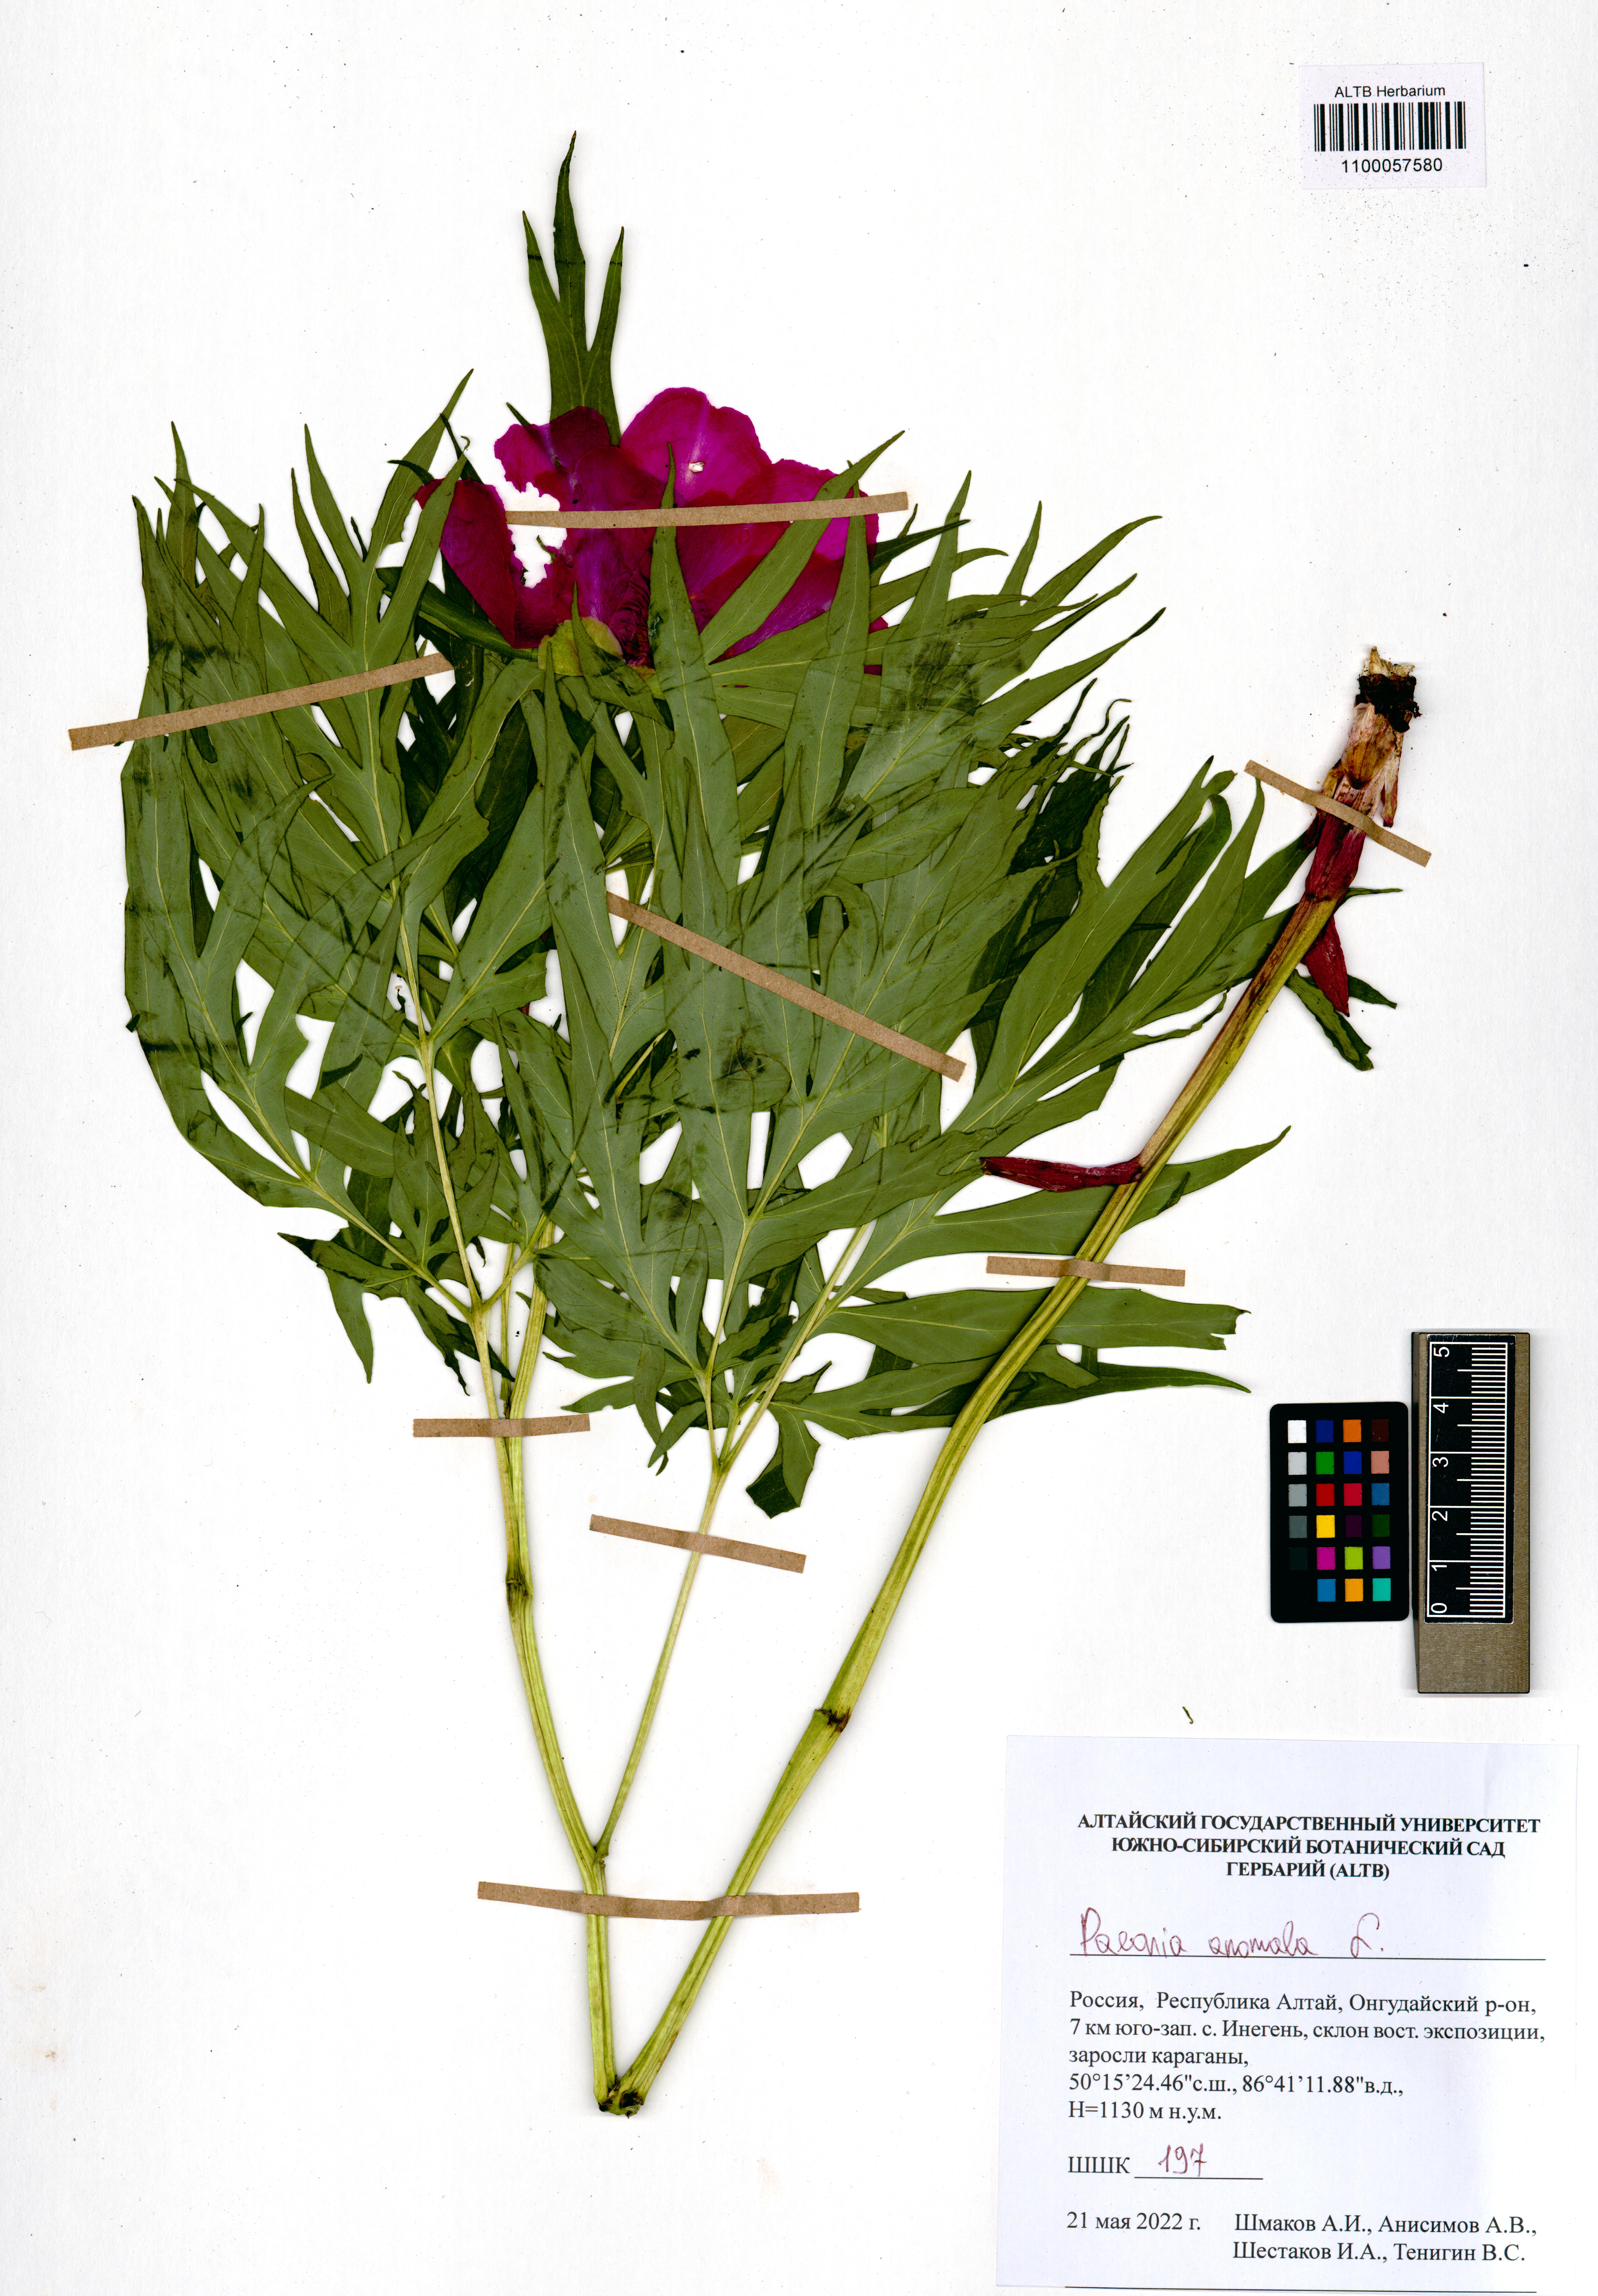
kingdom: Plantae
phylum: Tracheophyta
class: Magnoliopsida
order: Saxifragales
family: Paeoniaceae
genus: Paeonia
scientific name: Paeonia anomala
